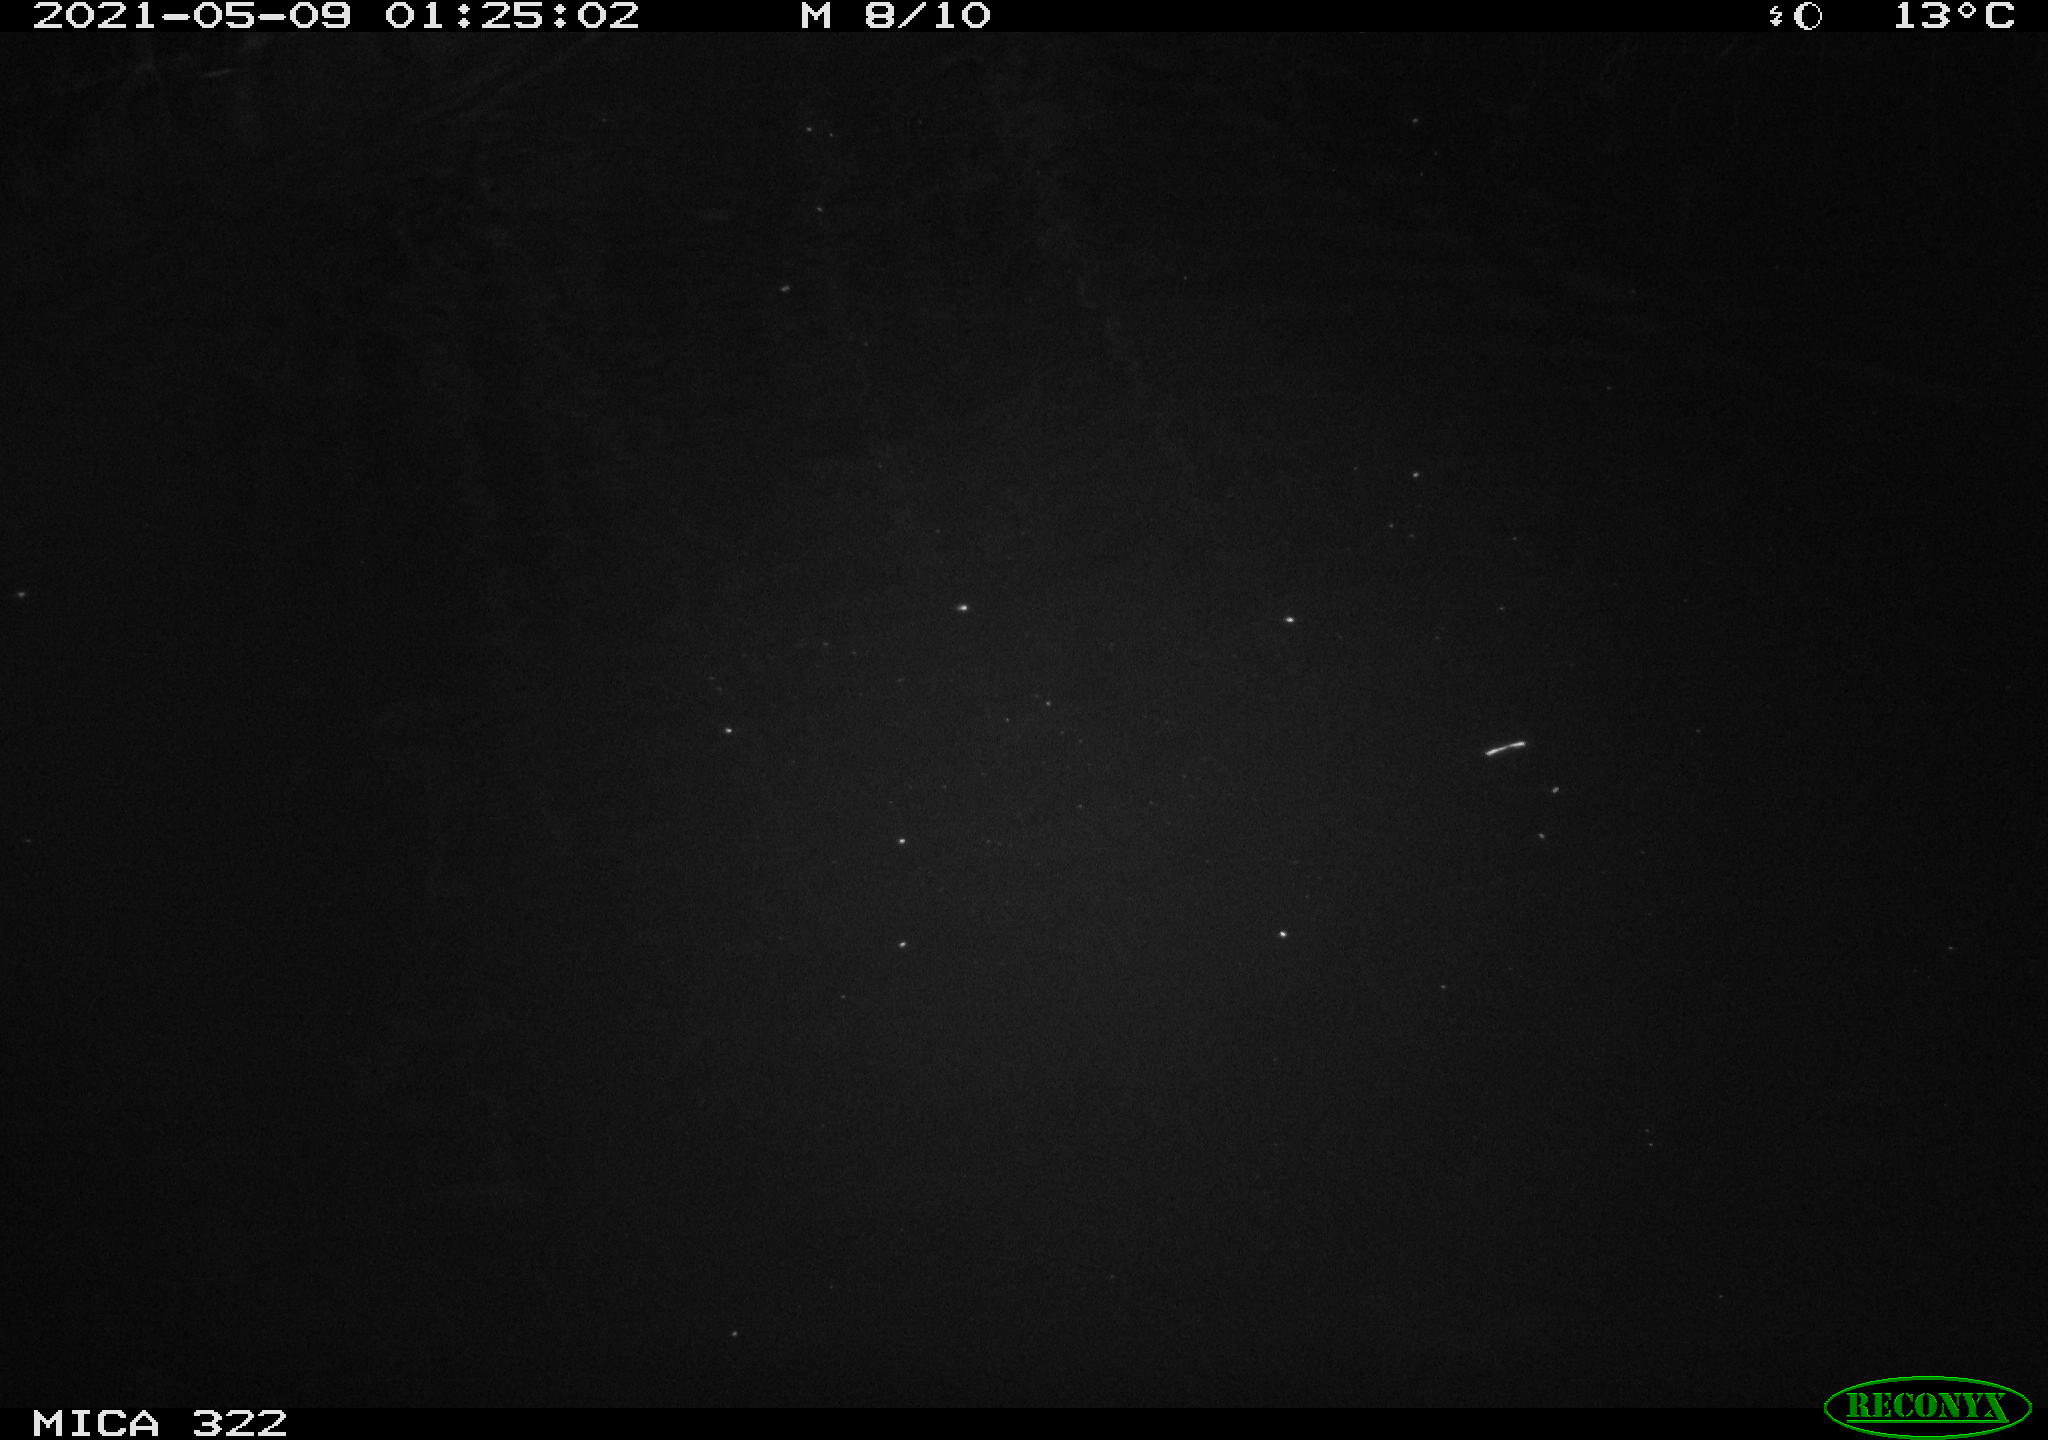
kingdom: Animalia
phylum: Chordata
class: Mammalia
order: Rodentia
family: Muridae
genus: Rattus
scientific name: Rattus norvegicus
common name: Brown rat
